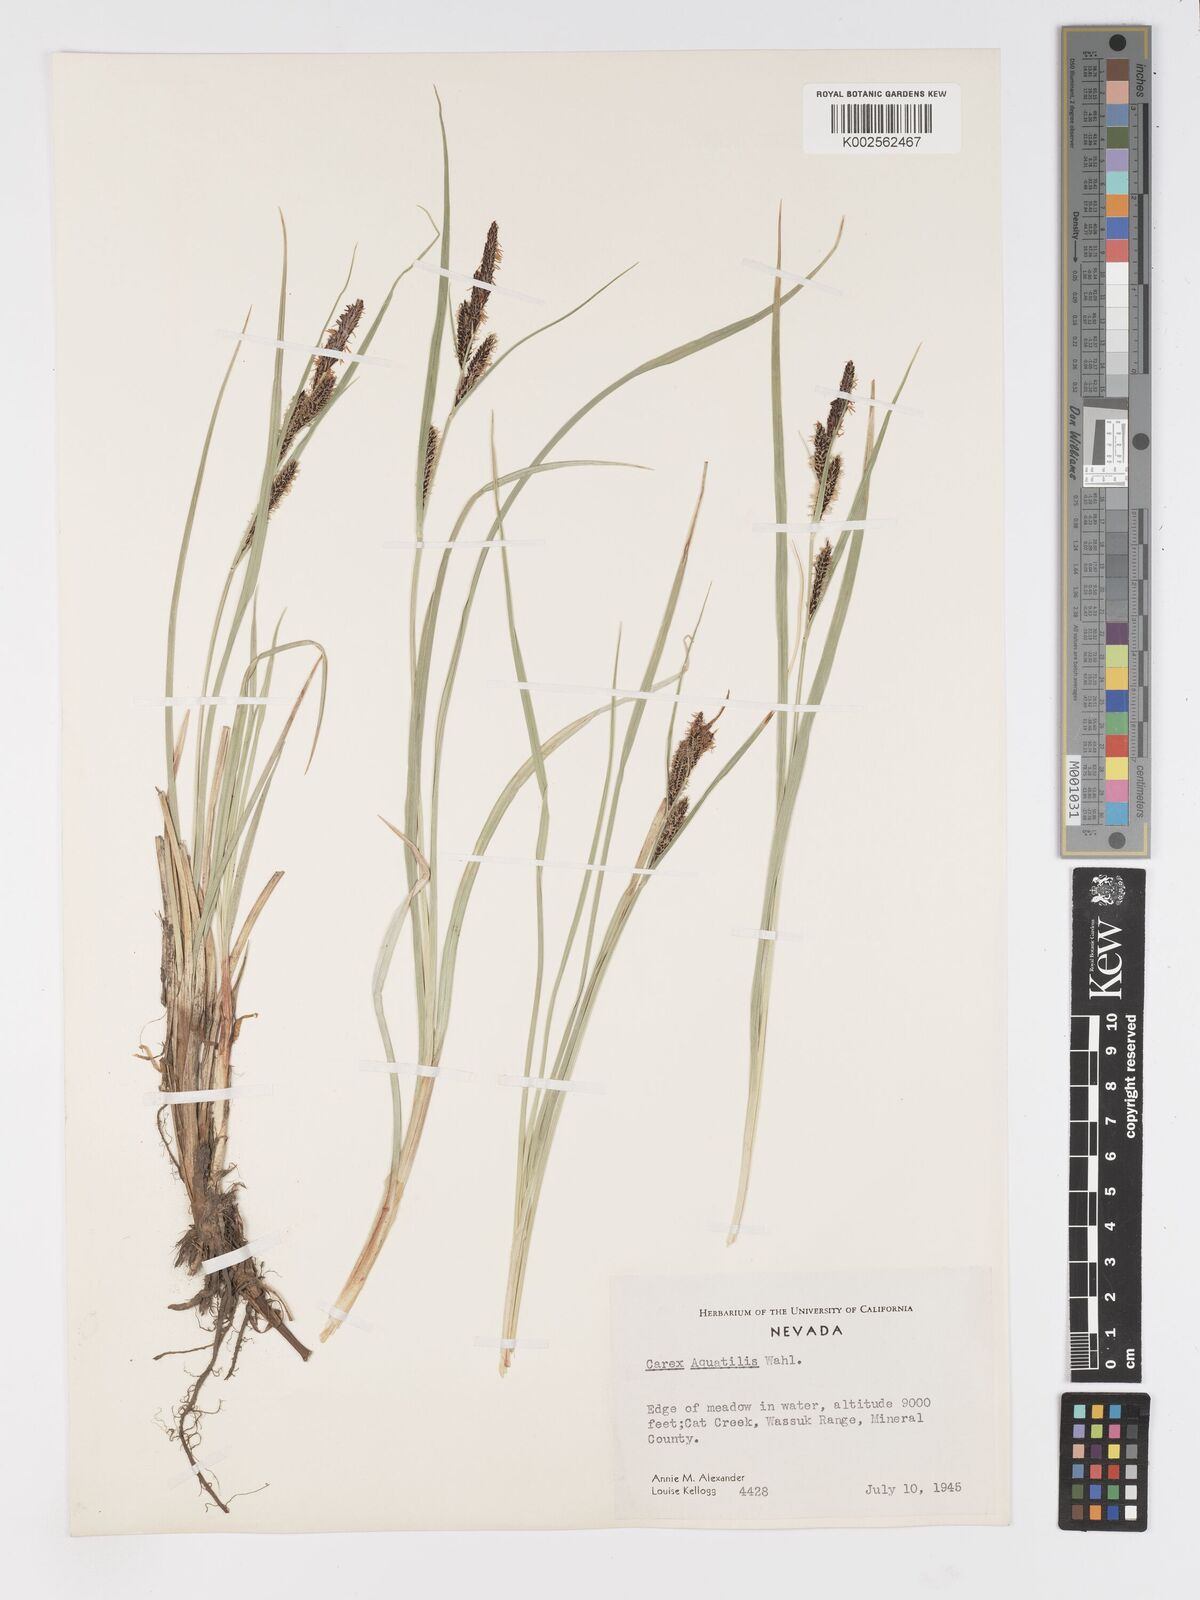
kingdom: Plantae
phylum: Tracheophyta
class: Liliopsida
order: Poales
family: Cyperaceae
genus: Carex
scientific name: Carex
